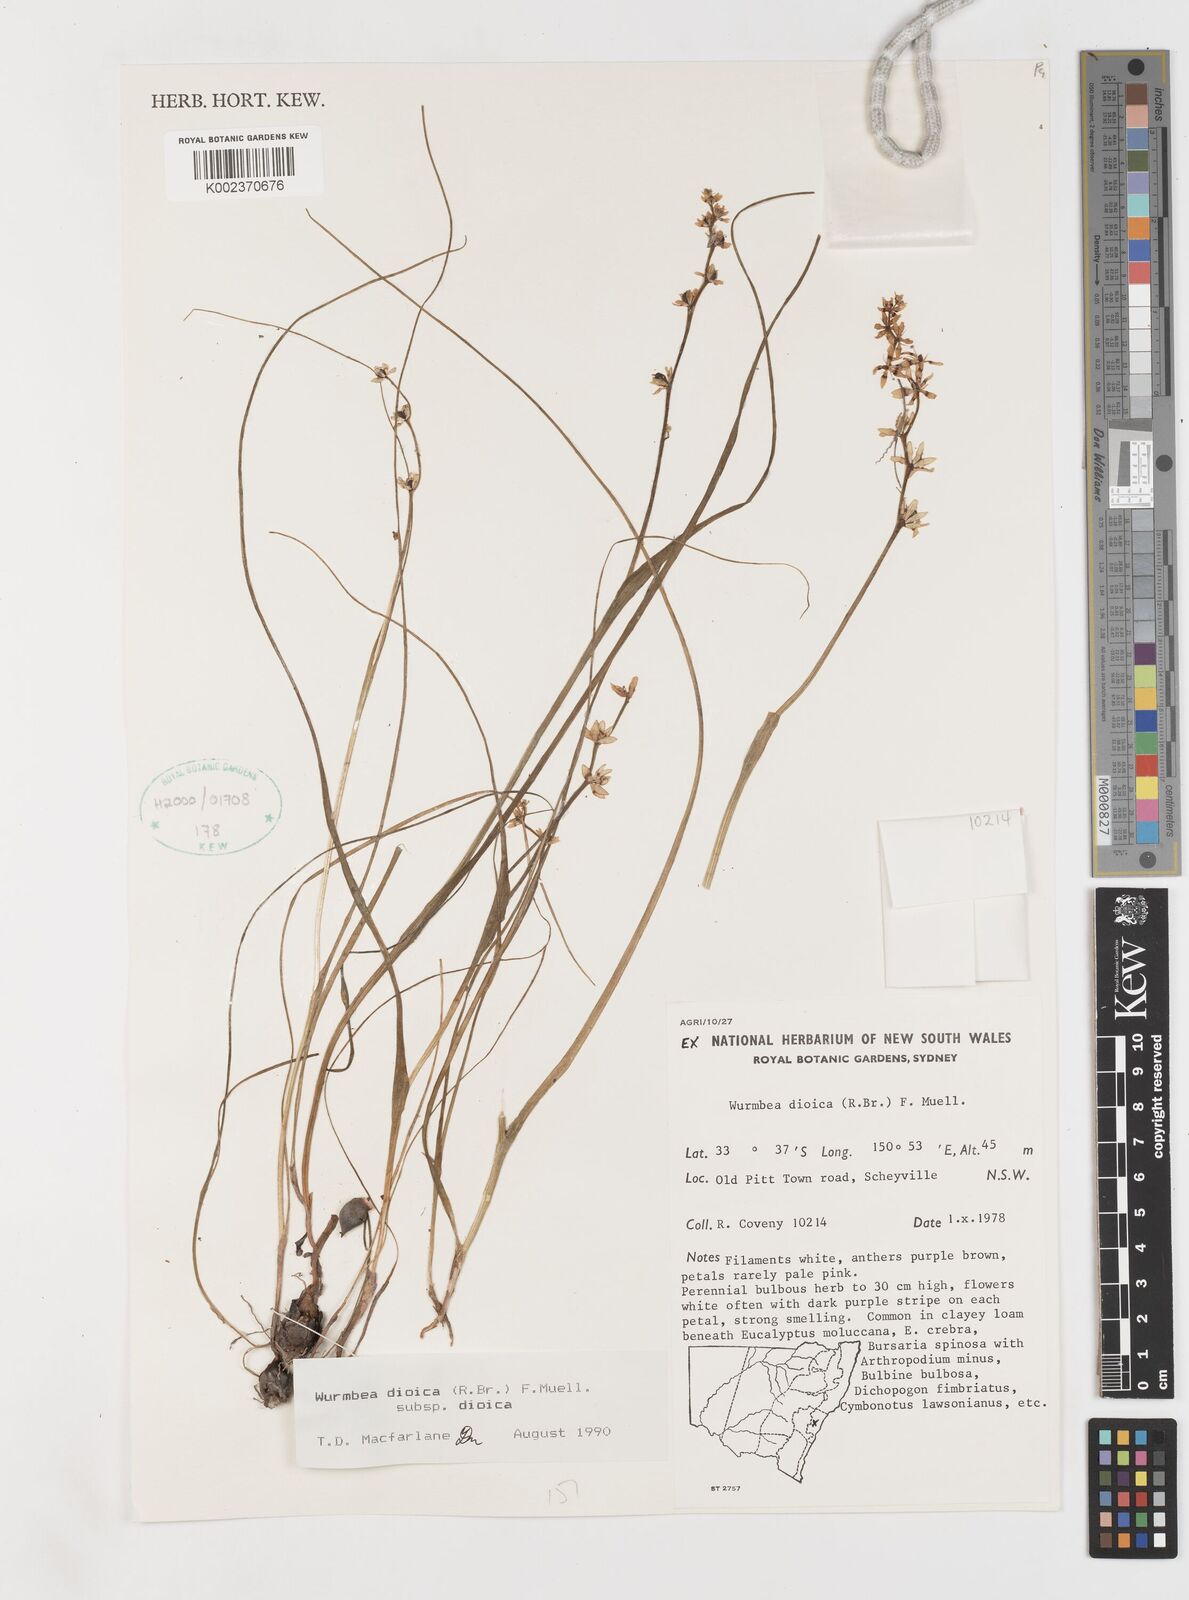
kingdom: Plantae
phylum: Tracheophyta
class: Liliopsida
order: Liliales
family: Colchicaceae
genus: Wurmbea
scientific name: Wurmbea dioica
